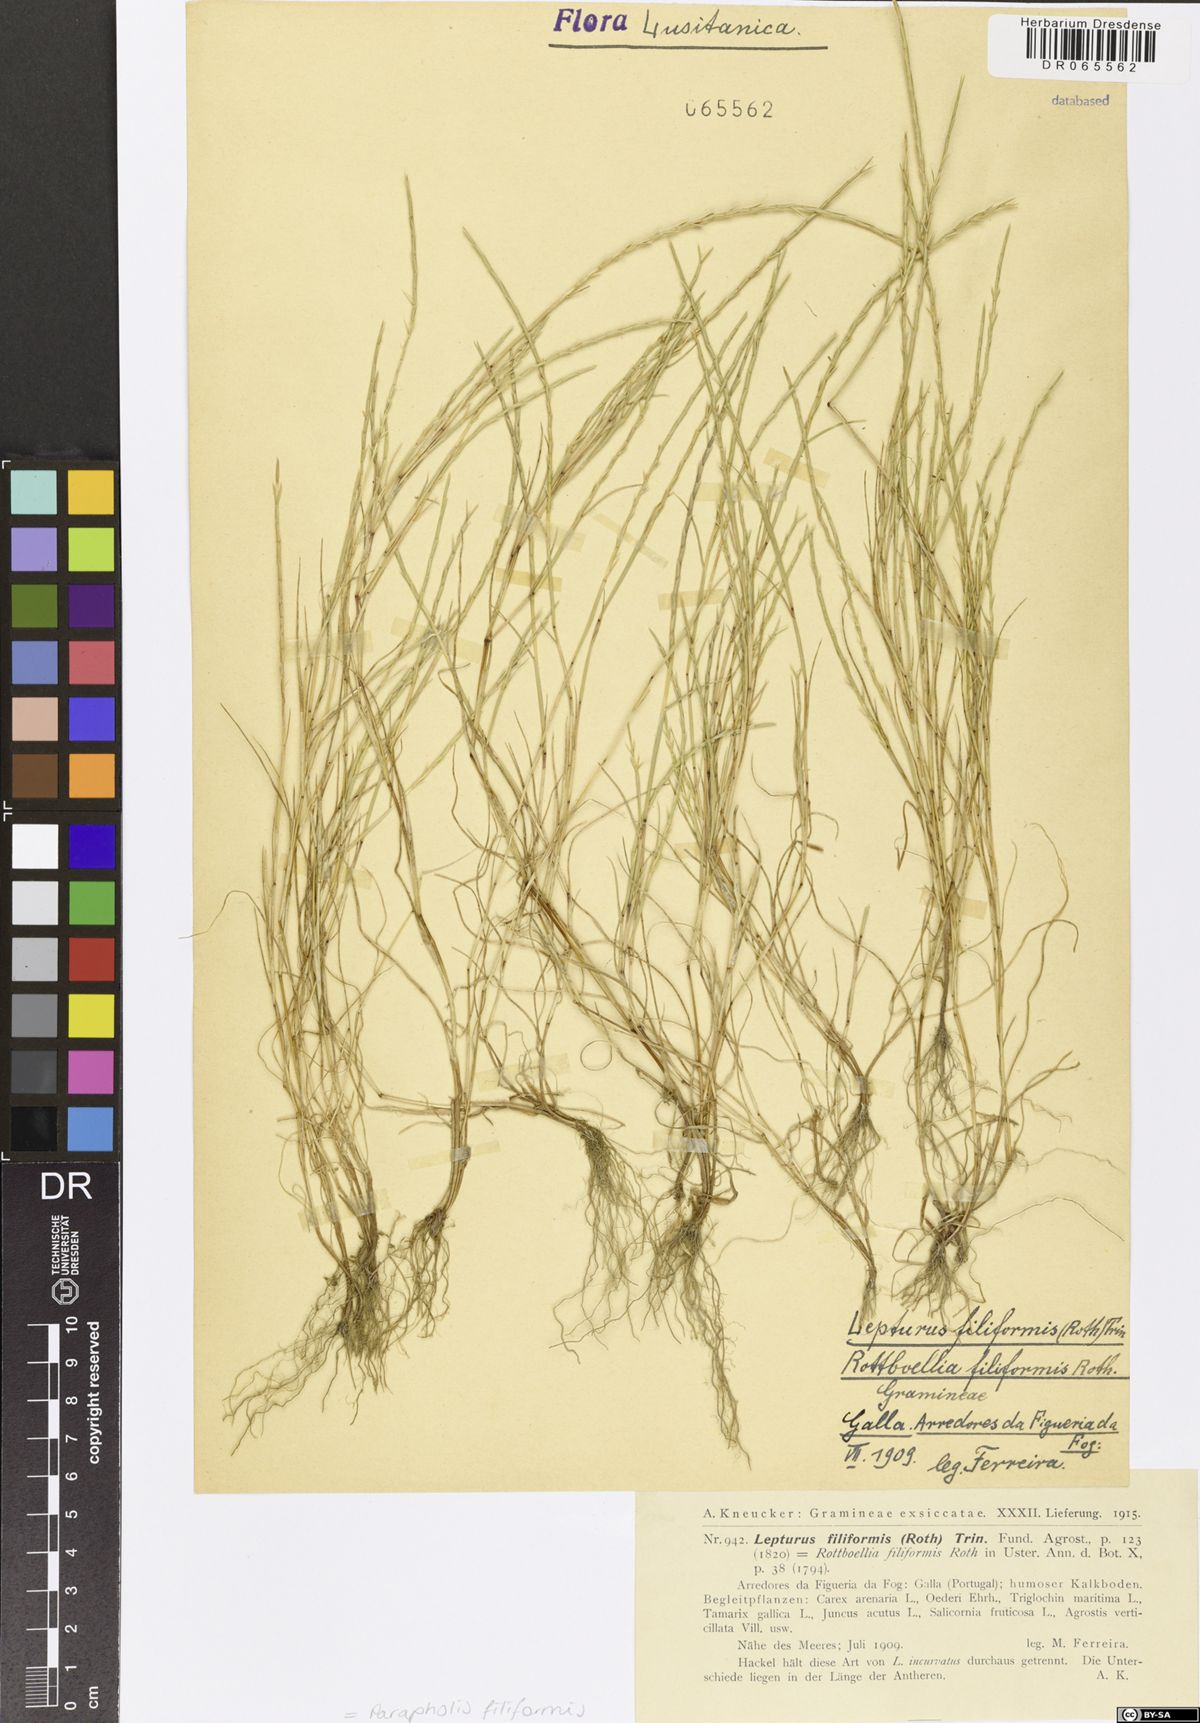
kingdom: Plantae
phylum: Tracheophyta
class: Liliopsida
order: Poales
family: Poaceae
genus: Parapholis
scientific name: Parapholis filiformis
